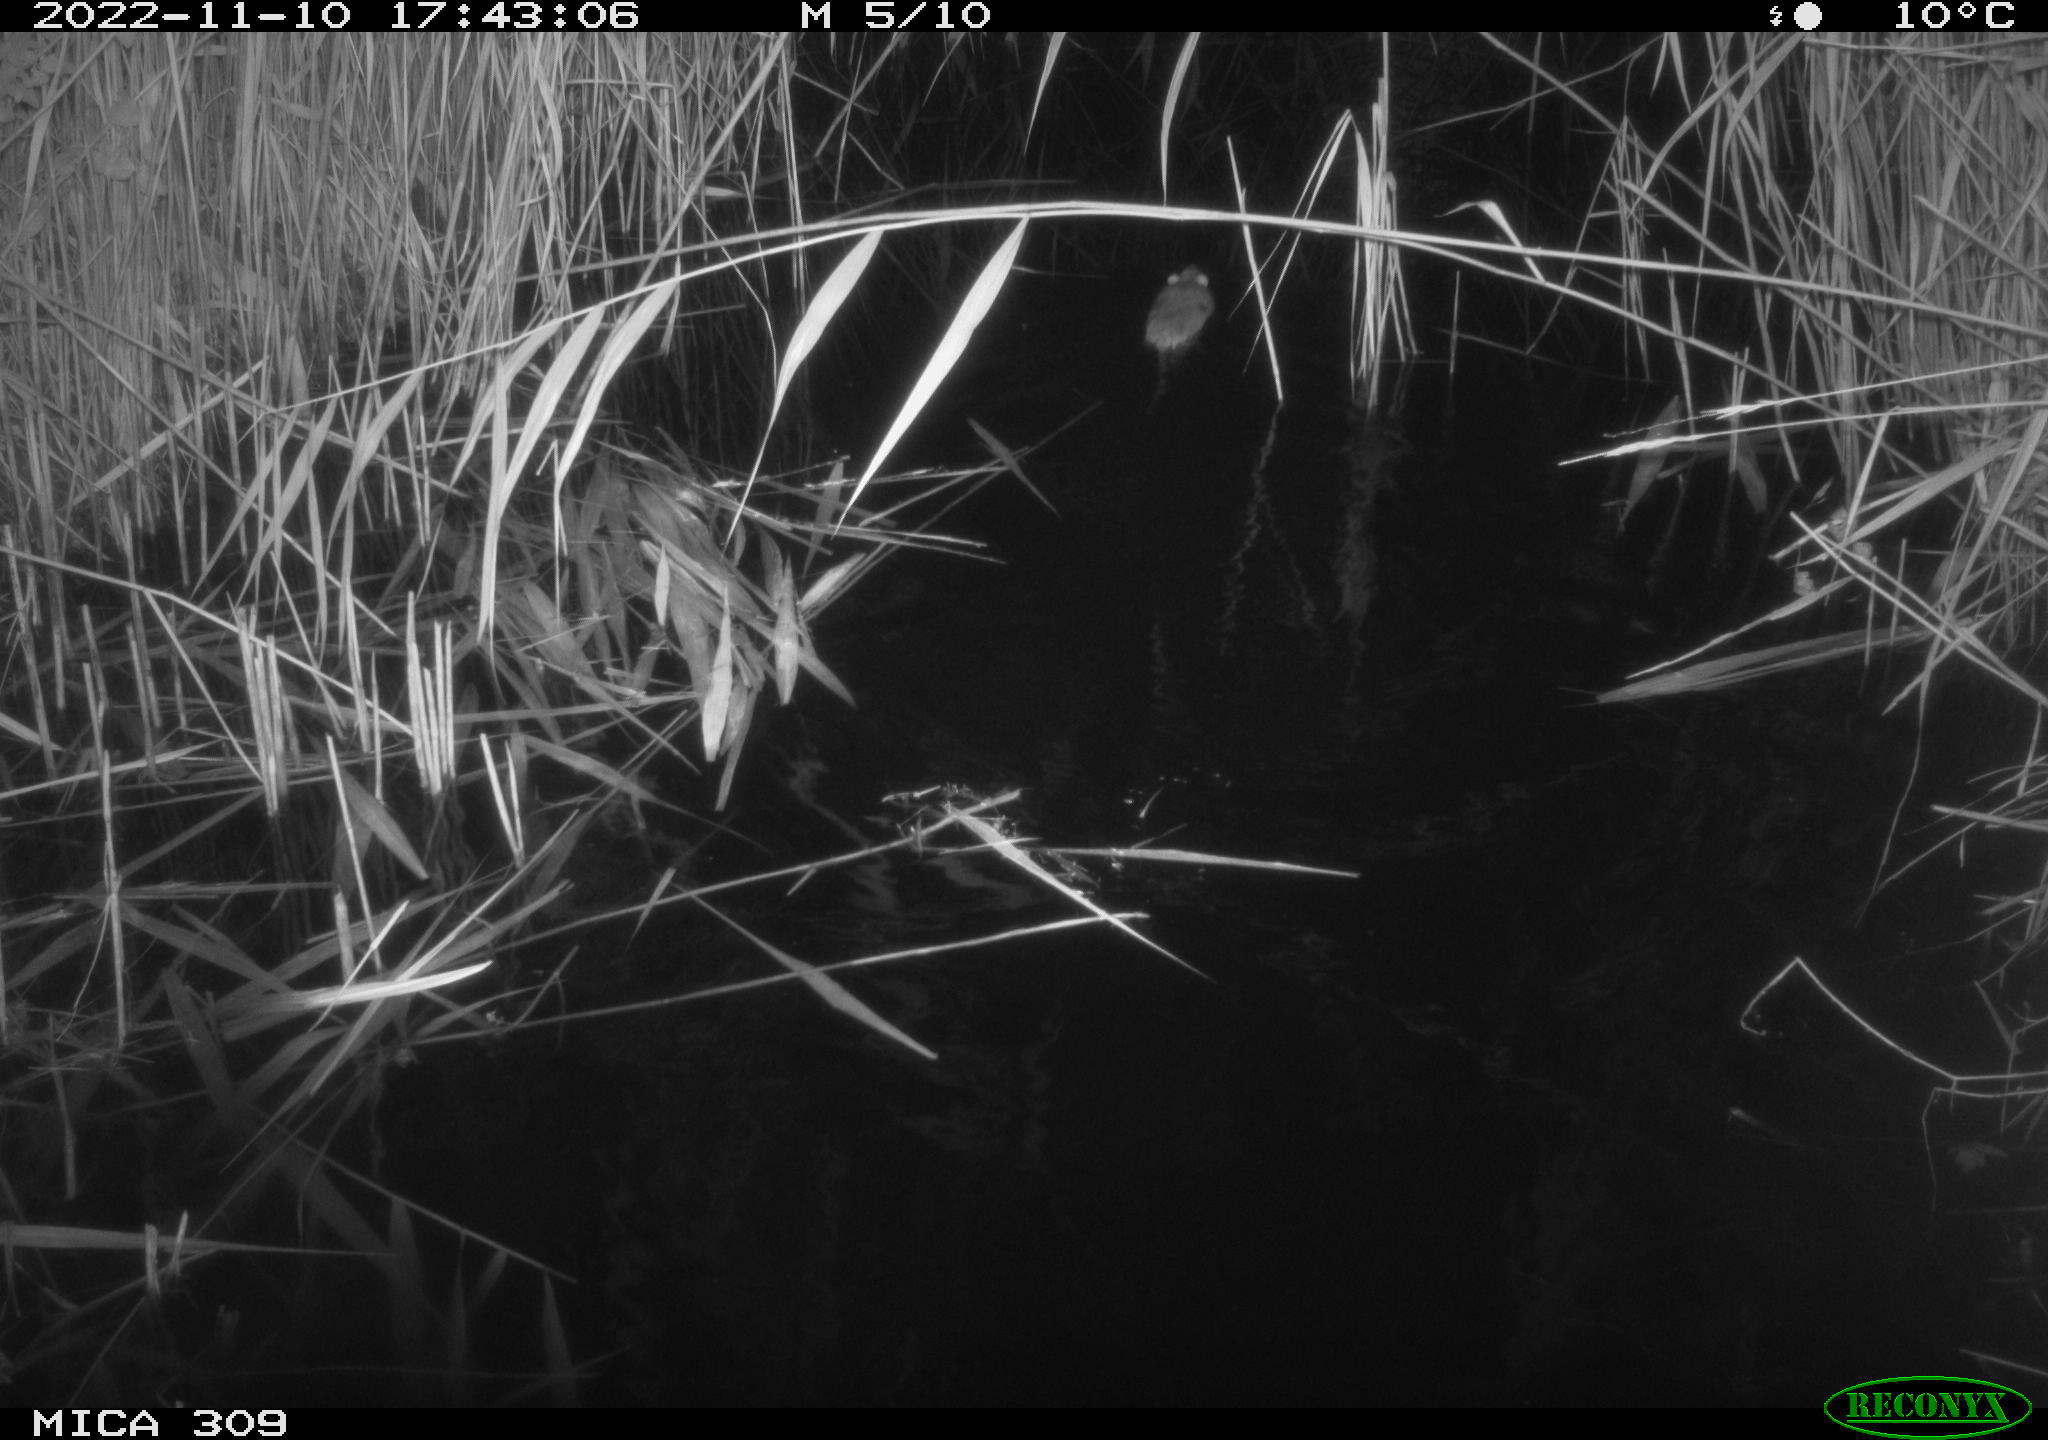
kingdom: Animalia
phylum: Chordata
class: Mammalia
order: Rodentia
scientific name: Rodentia
